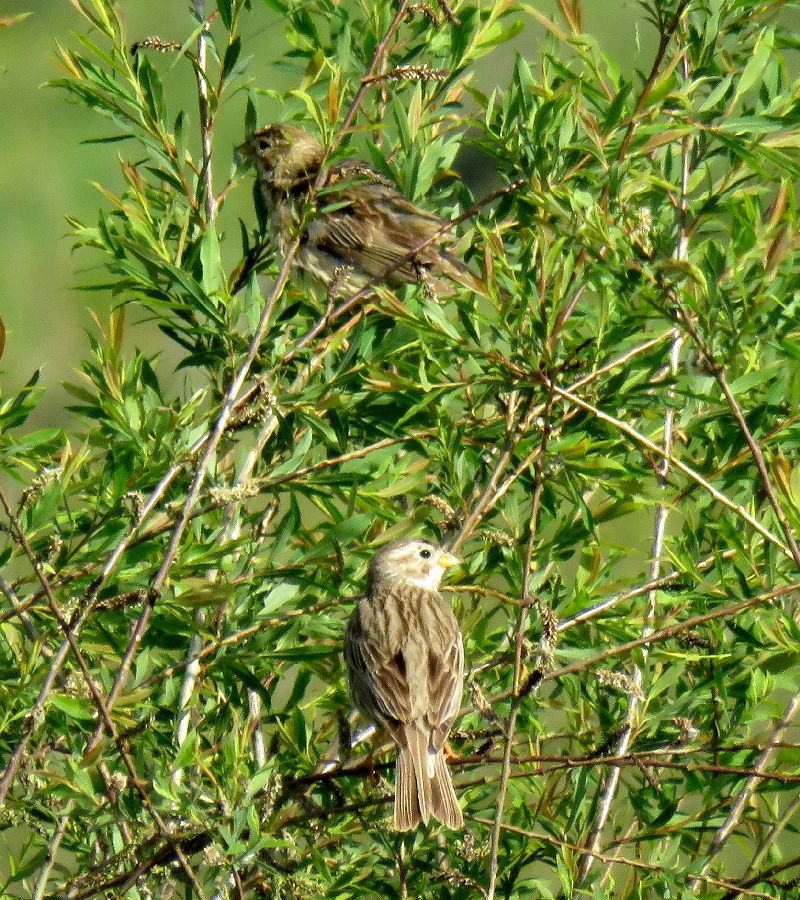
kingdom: Animalia
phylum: Chordata
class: Aves
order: Passeriformes
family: Emberizidae
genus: Emberiza
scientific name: Emberiza calandra
